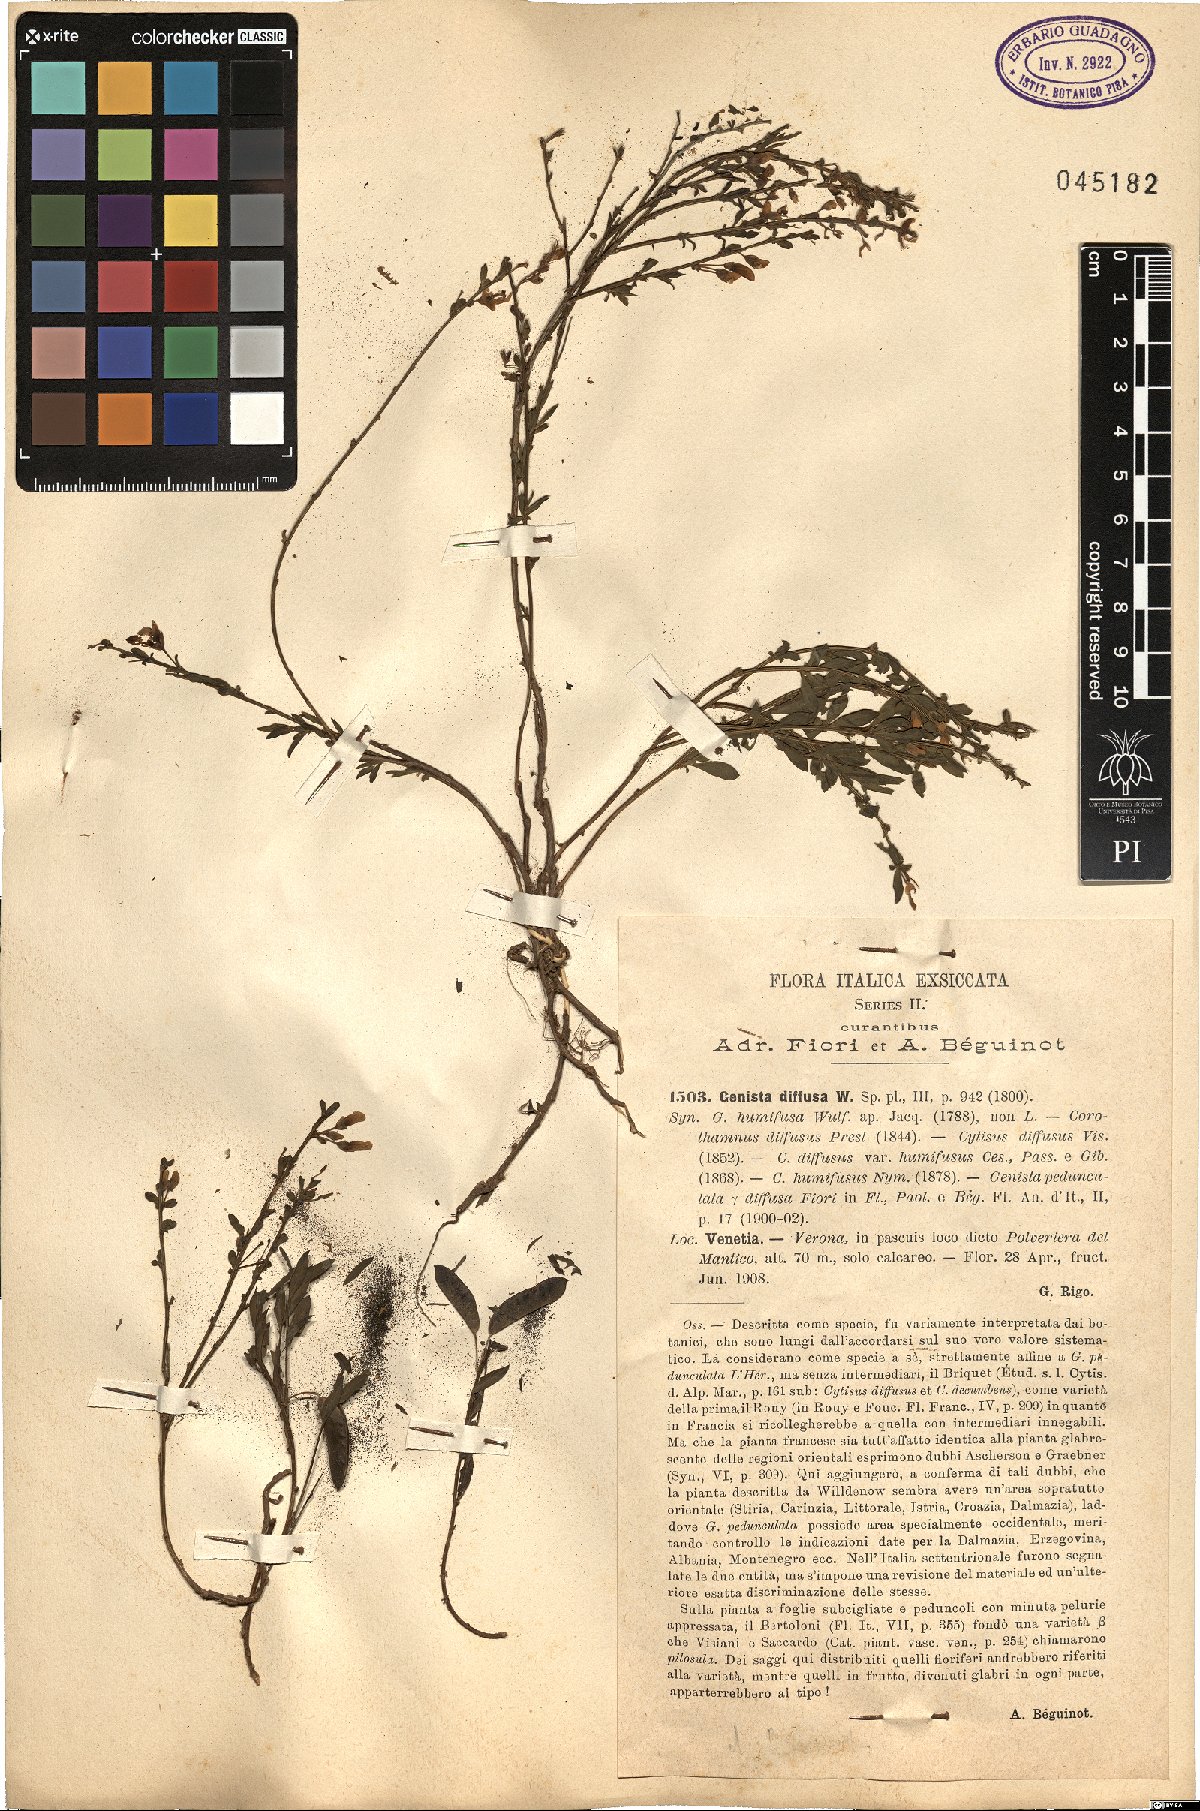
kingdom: Plantae
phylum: Tracheophyta
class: Magnoliopsida
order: Fabales
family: Fabaceae
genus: Cytisus
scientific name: Cytisus decumbens
